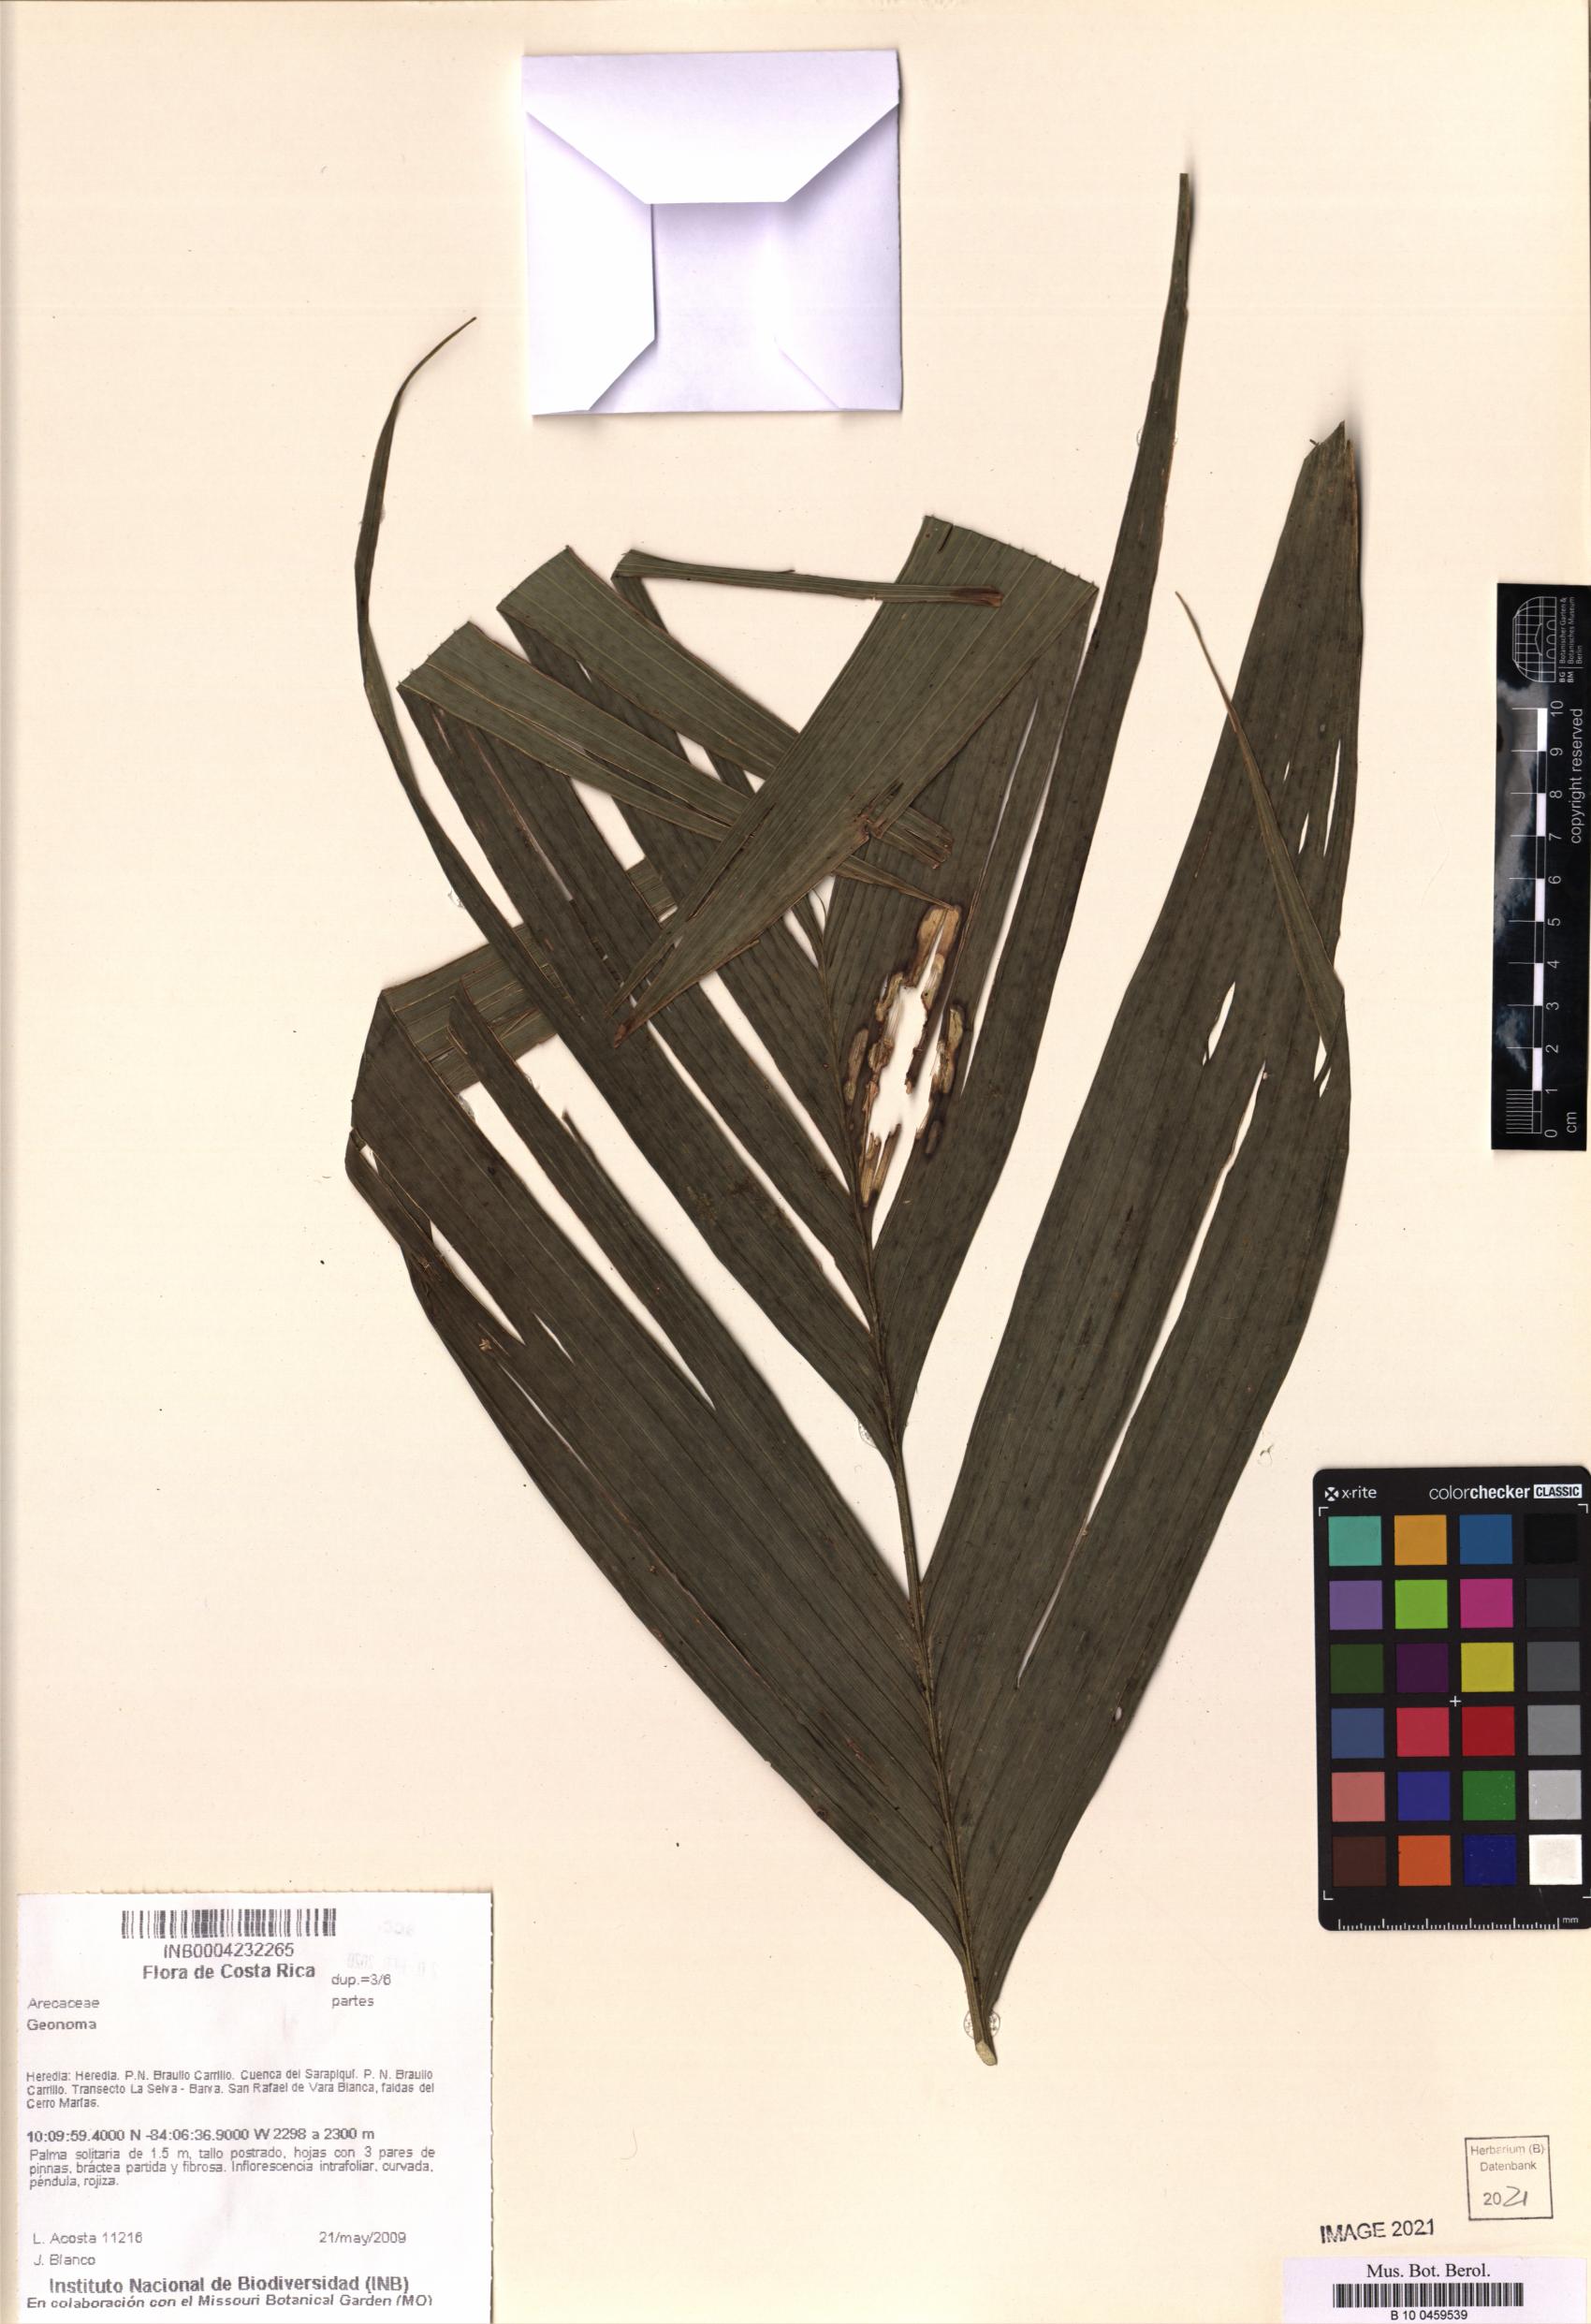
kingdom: Plantae
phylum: Tracheophyta
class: Liliopsida
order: Arecales
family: Arecaceae
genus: Geonoma
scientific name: Geonoma
